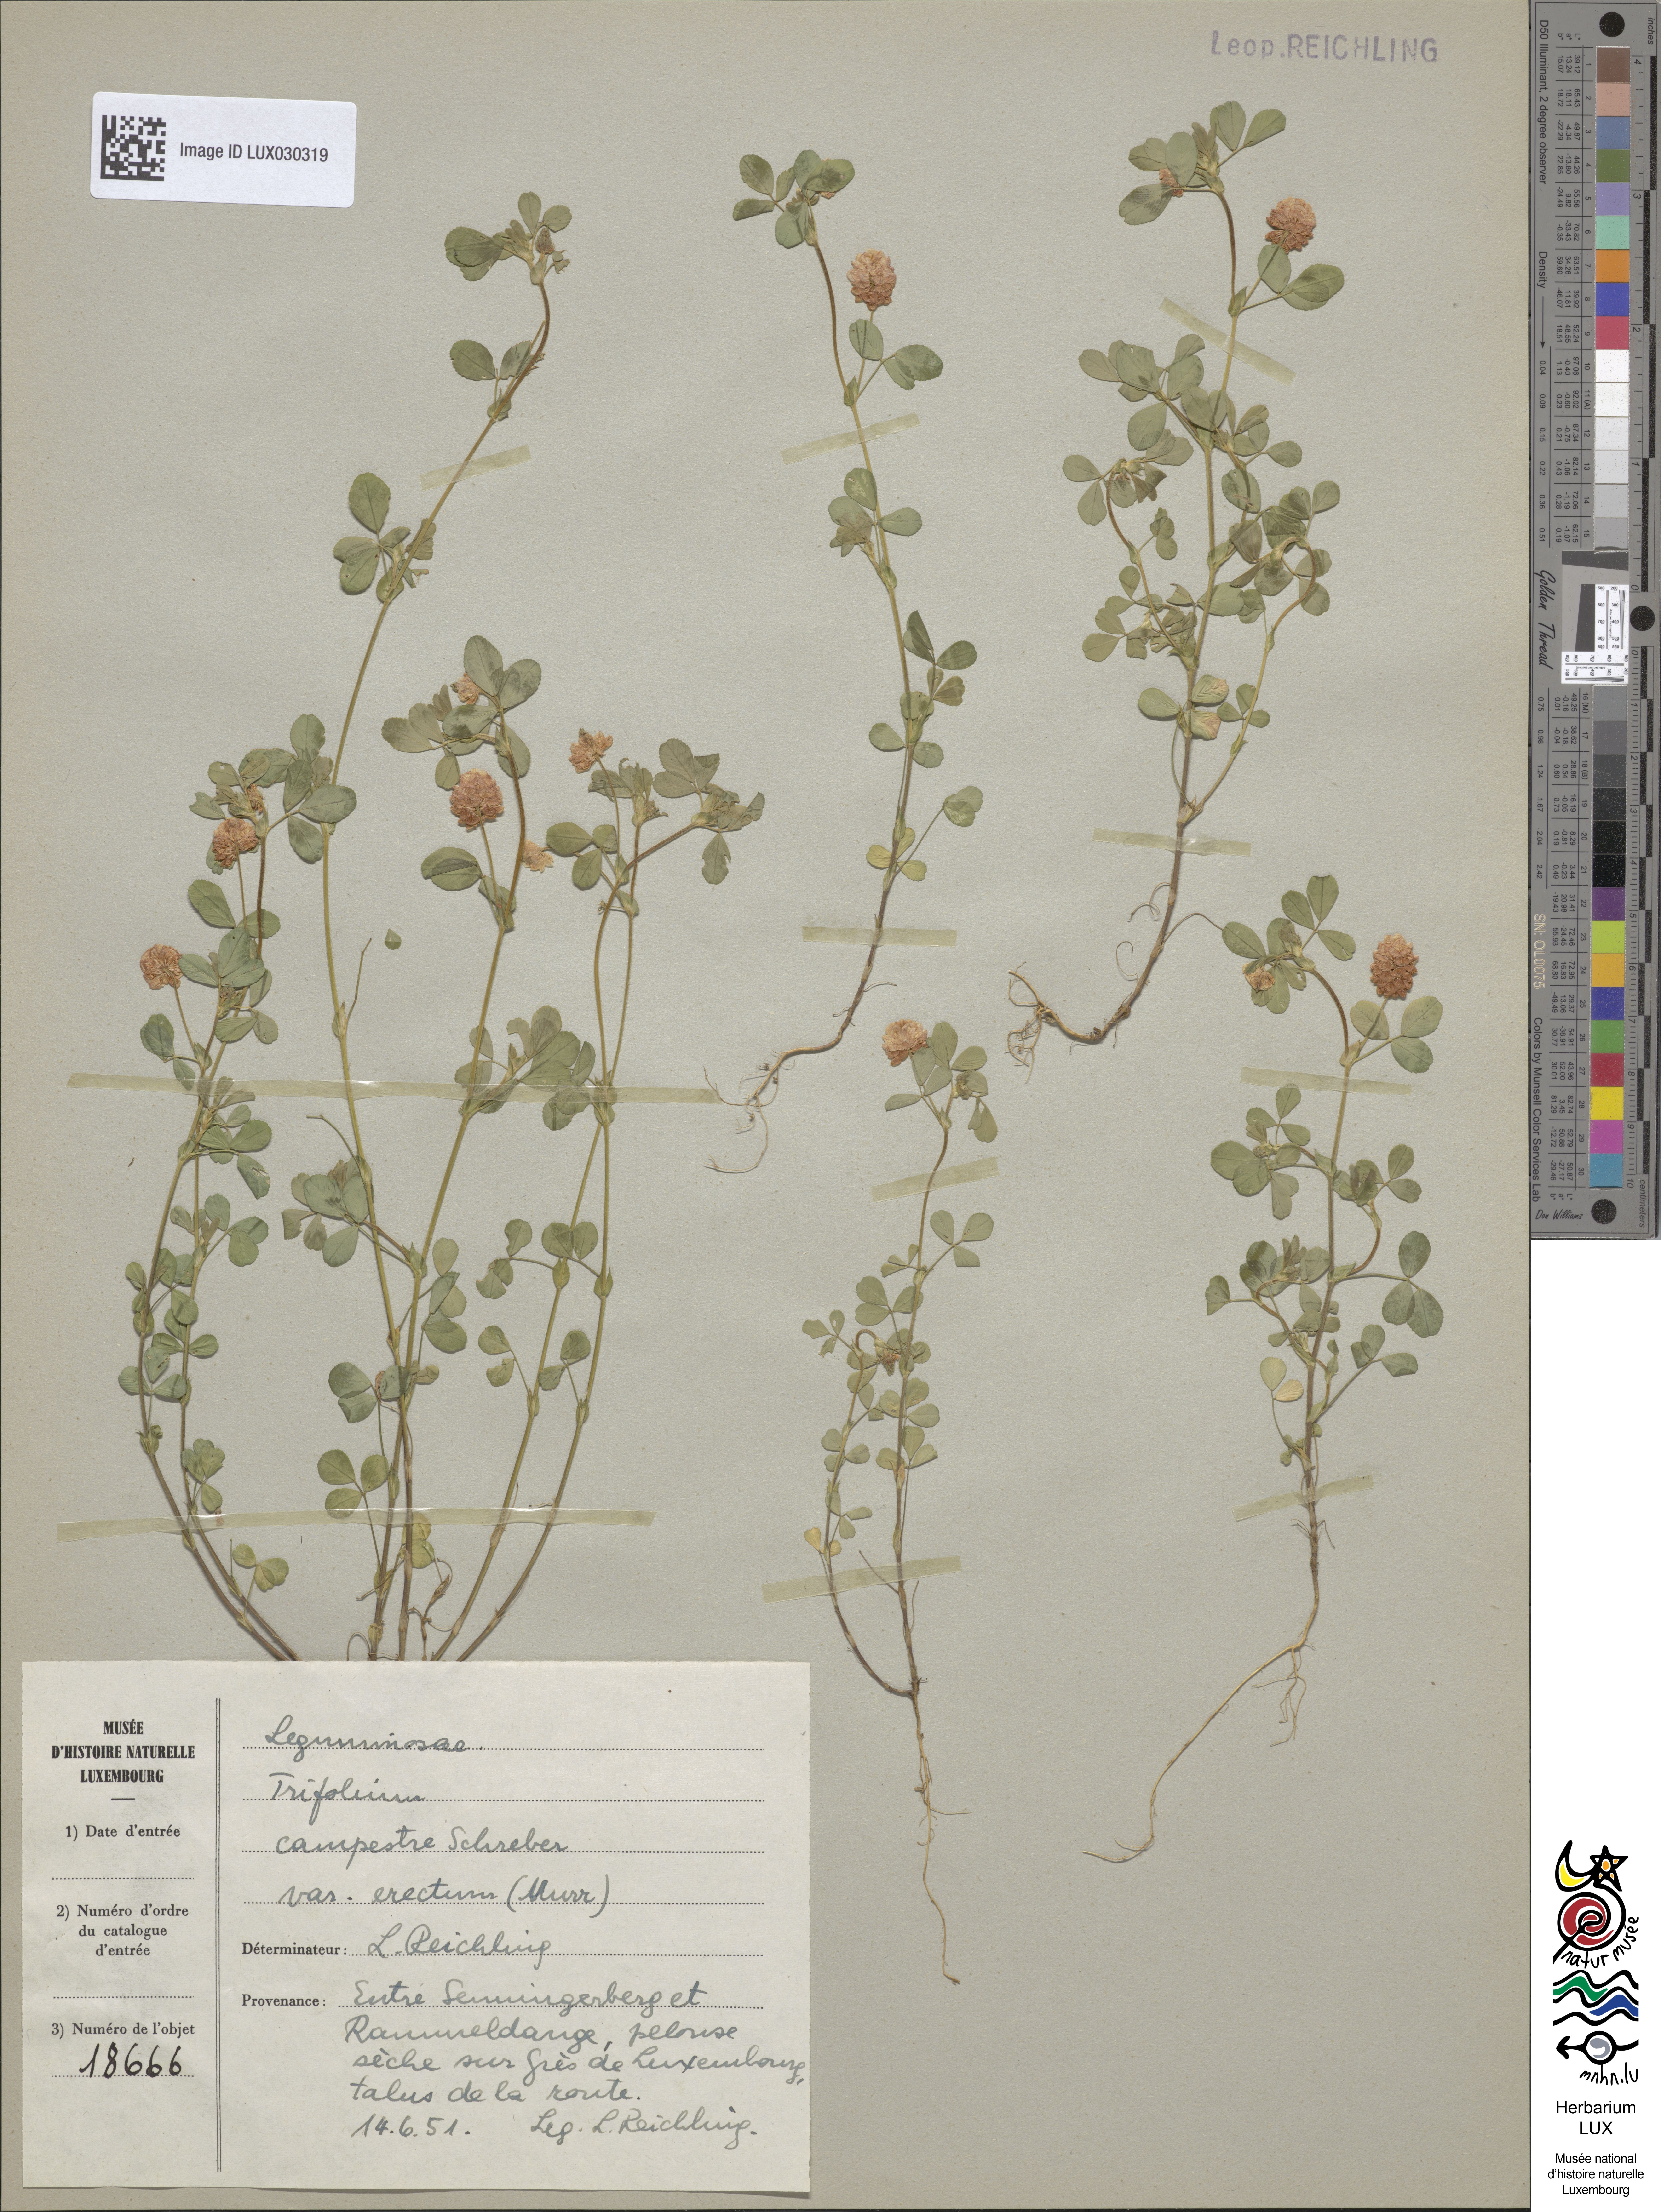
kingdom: Plantae
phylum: Tracheophyta
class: Magnoliopsida
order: Fabales
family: Fabaceae
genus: Trifolium
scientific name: Trifolium campestre
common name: Field clover
